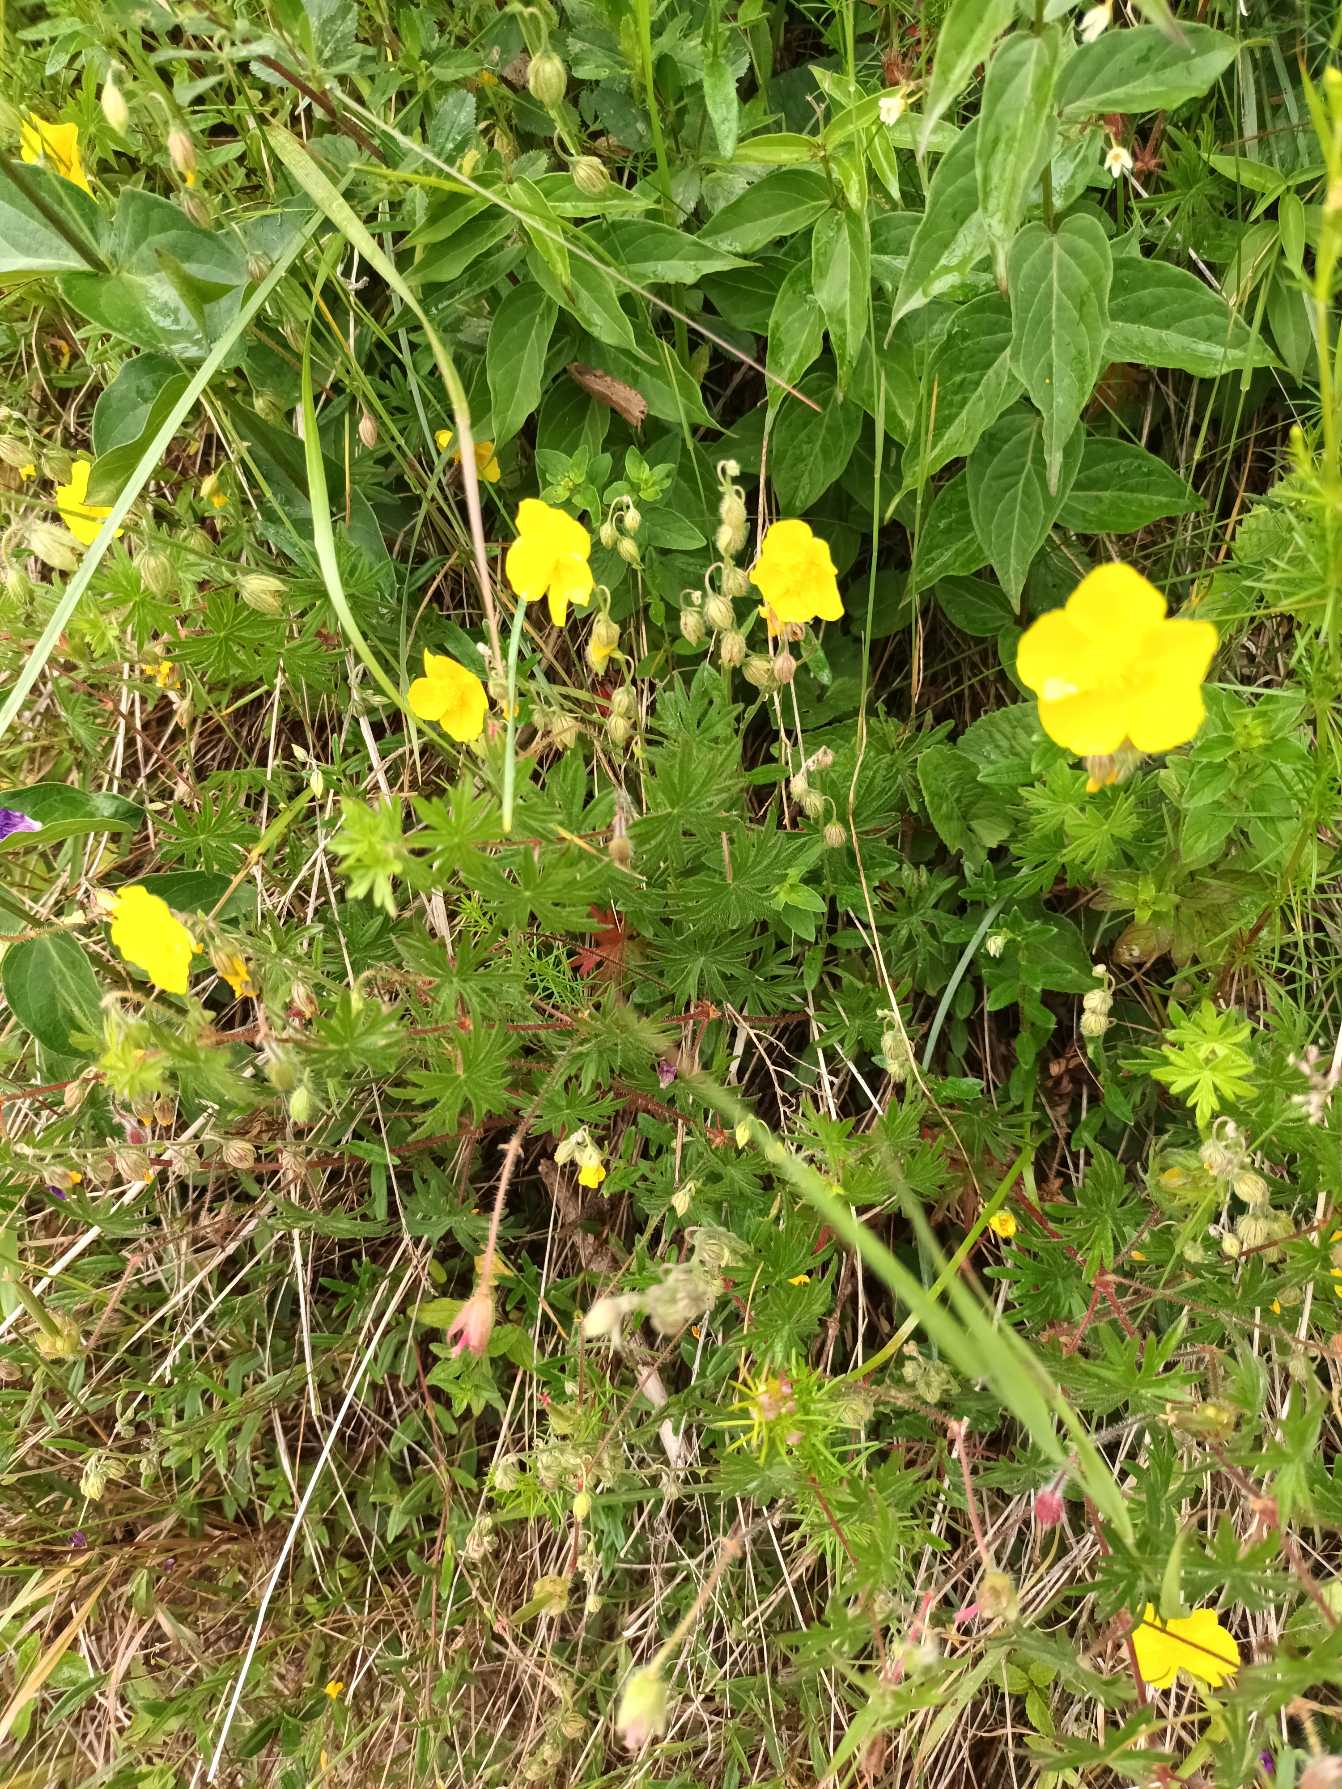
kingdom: Plantae
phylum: Tracheophyta
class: Magnoliopsida
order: Malvales
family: Cistaceae
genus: Helianthemum
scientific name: Helianthemum nummularium
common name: Bakke-soløje
